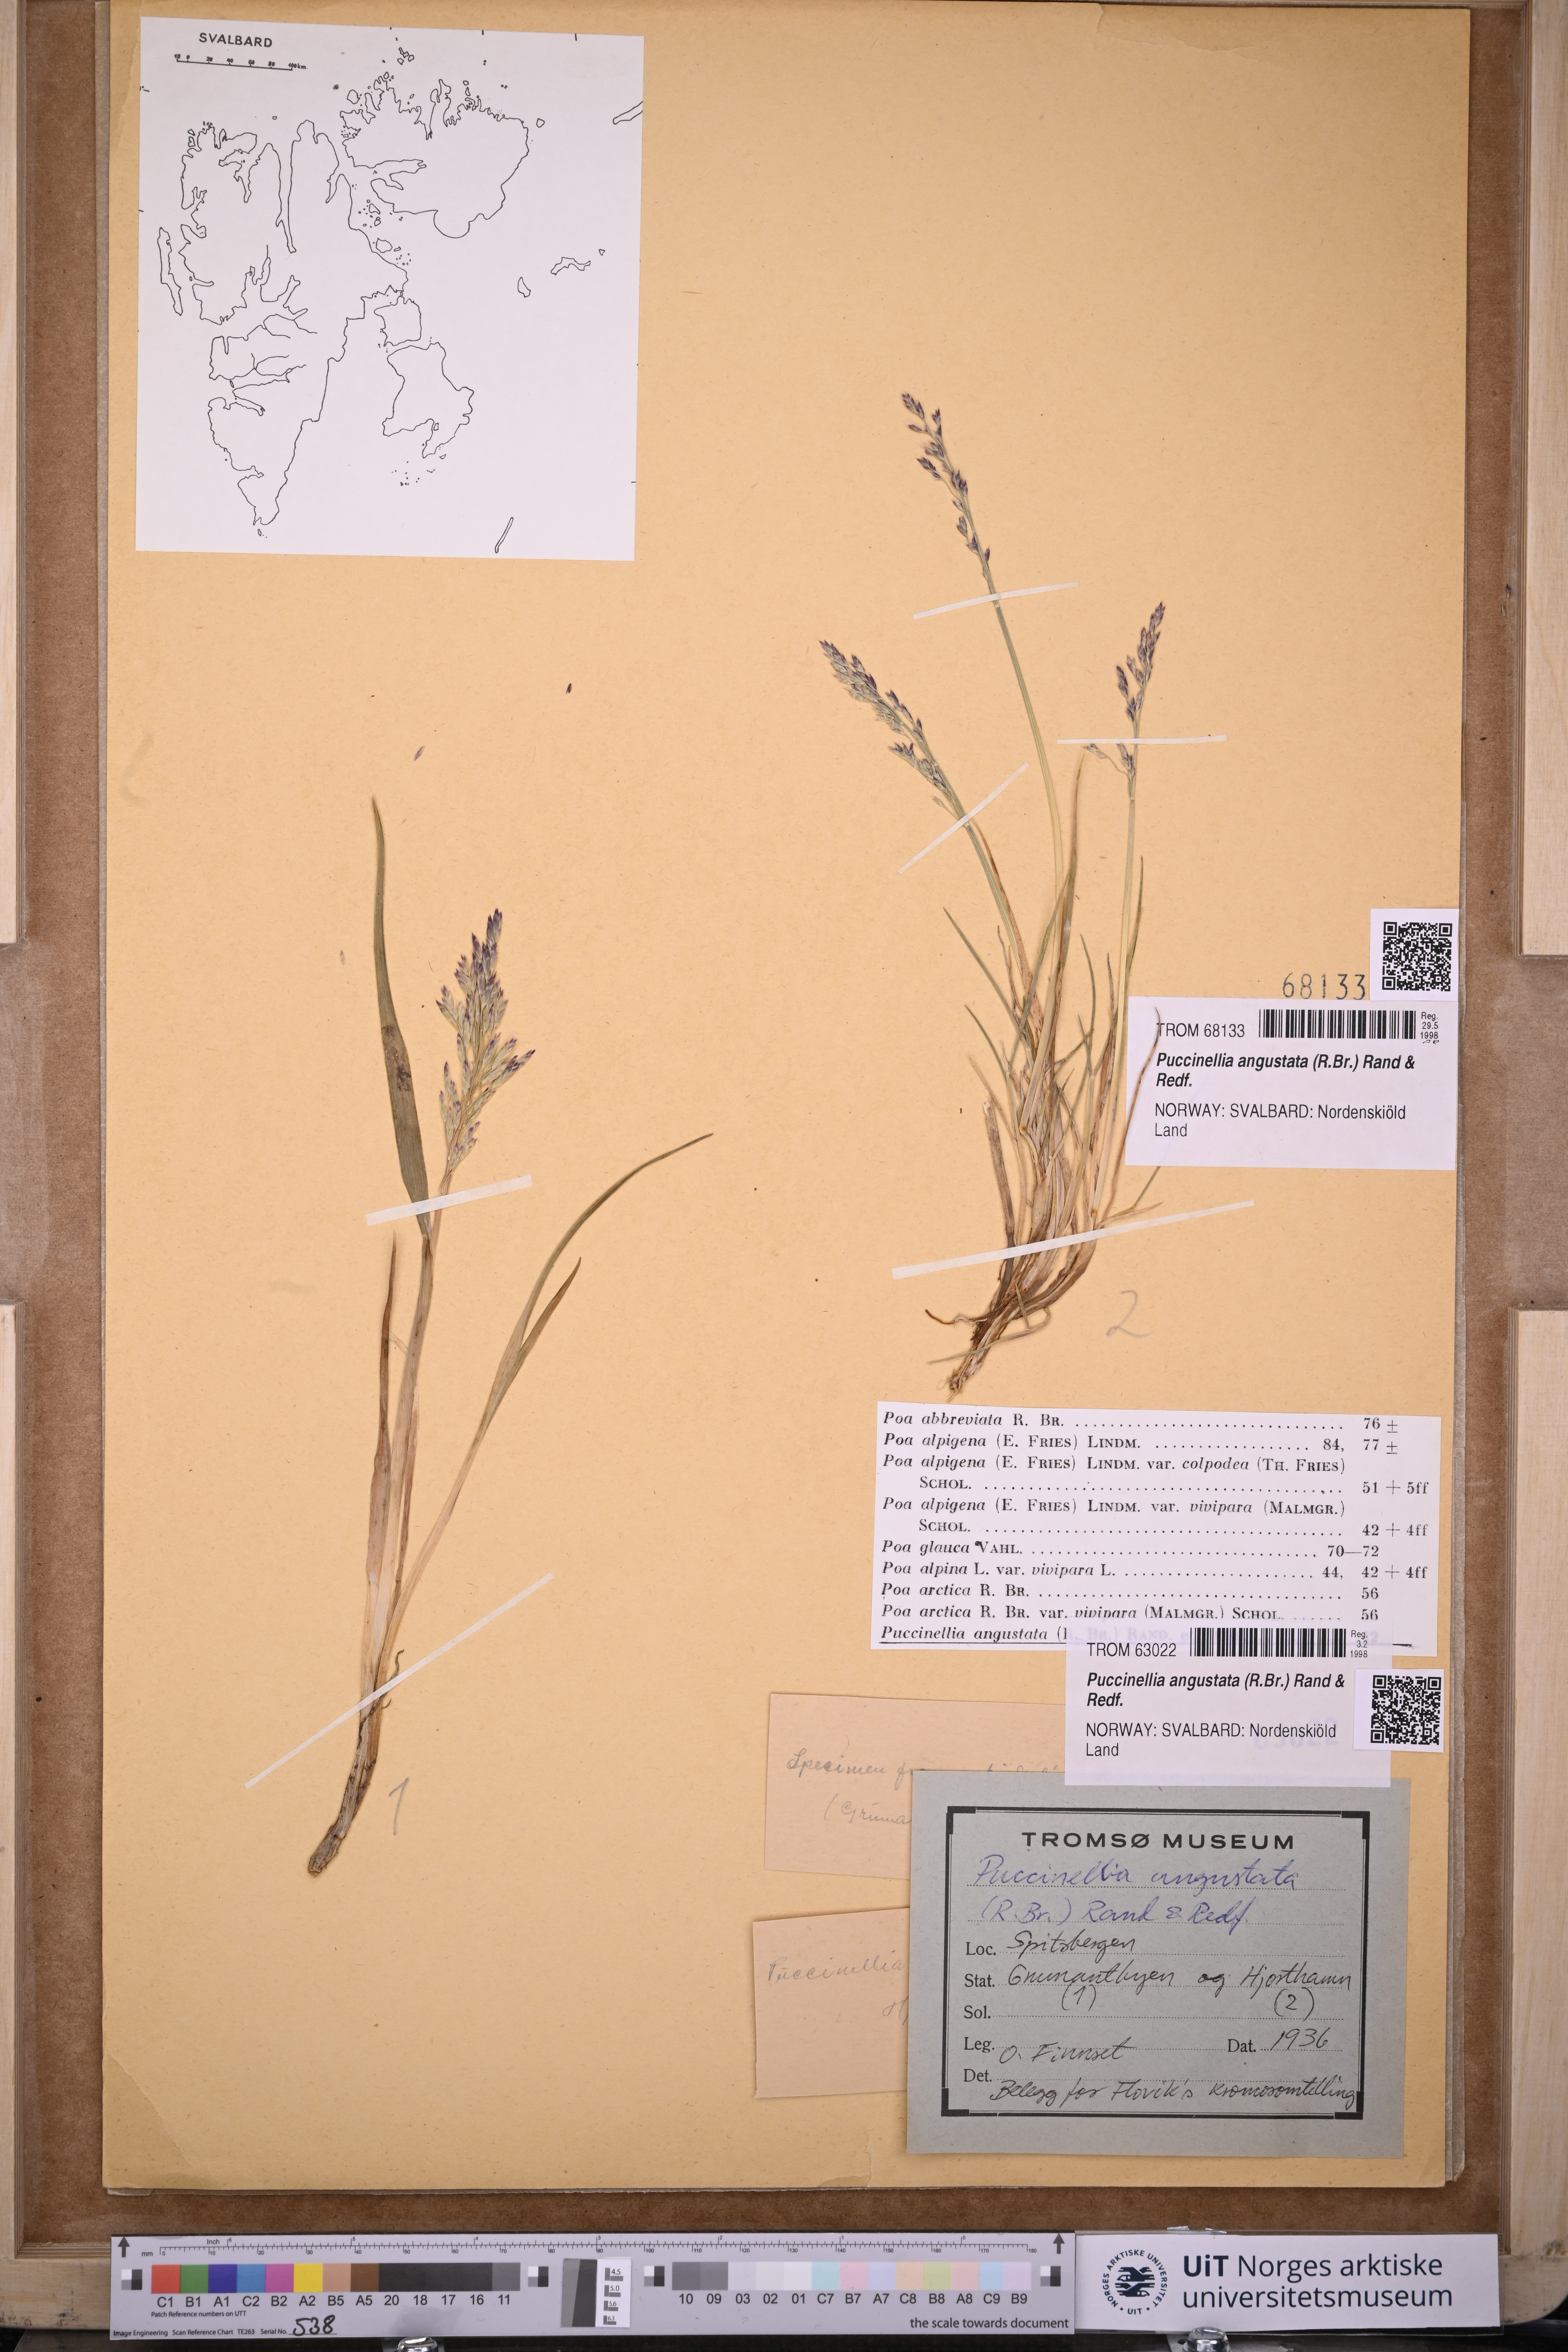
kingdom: Plantae
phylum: Tracheophyta
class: Liliopsida
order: Poales
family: Poaceae
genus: Puccinellia
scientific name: Puccinellia angustata
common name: Narrow alkaligrass
